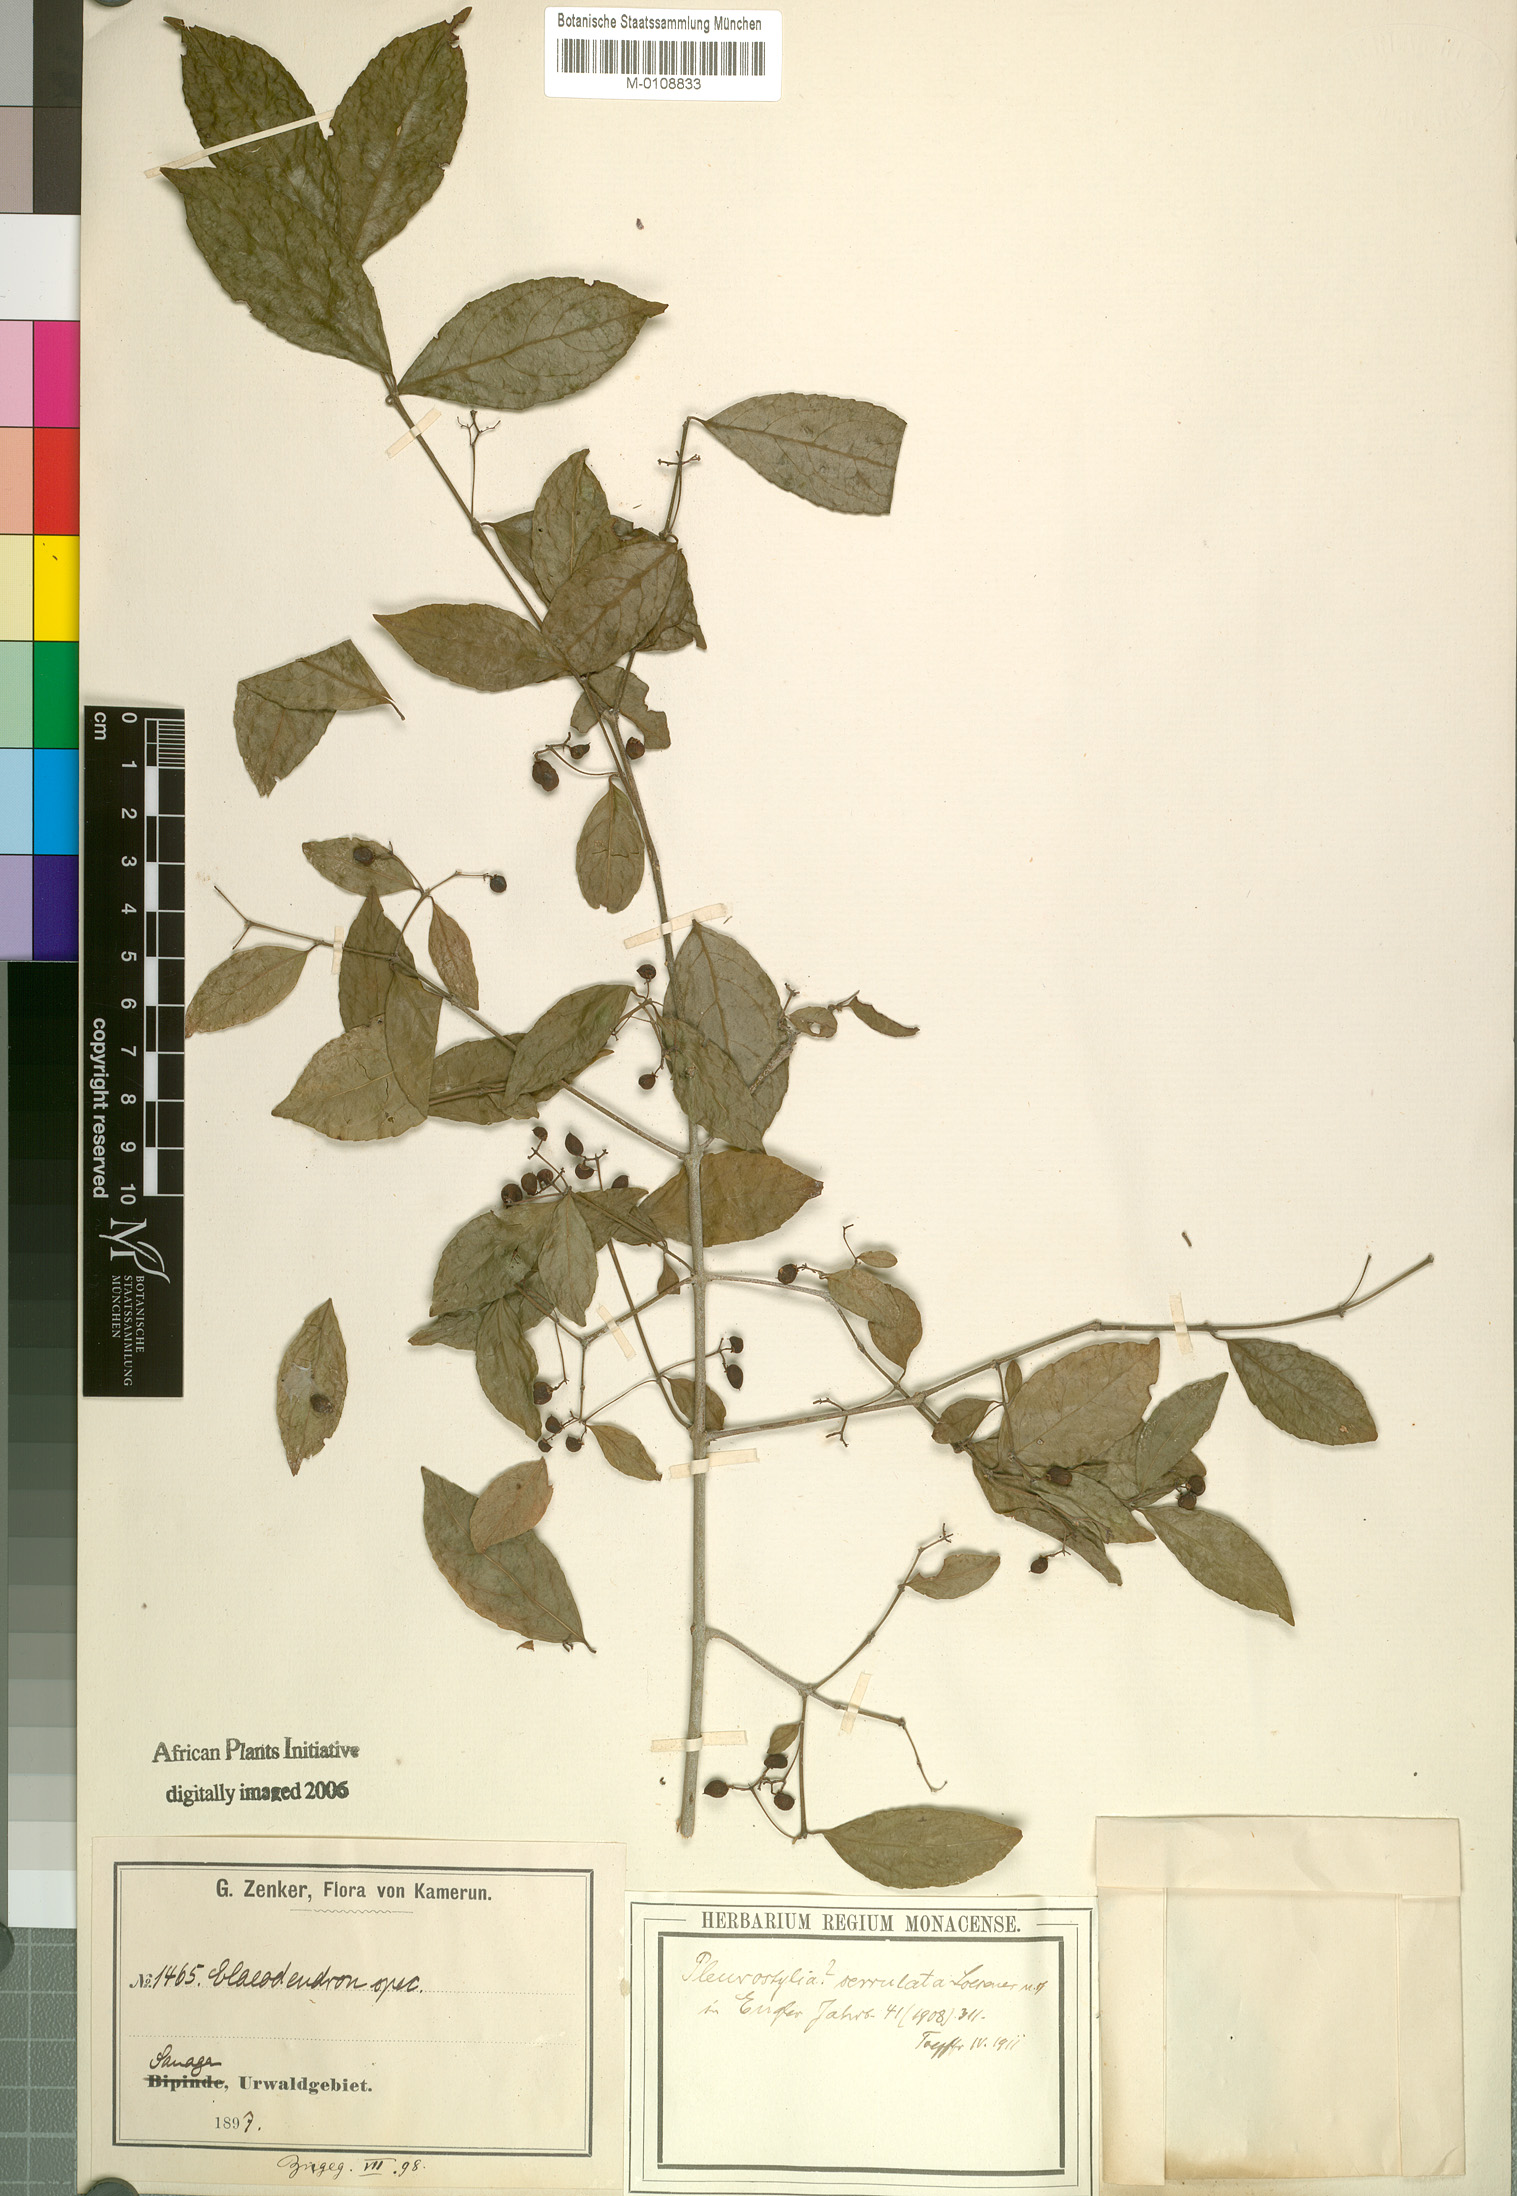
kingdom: Plantae
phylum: Tracheophyta
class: Magnoliopsida
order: Celastrales
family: Celastraceae
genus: Crossopetalum
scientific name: Crossopetalum serrulatum
